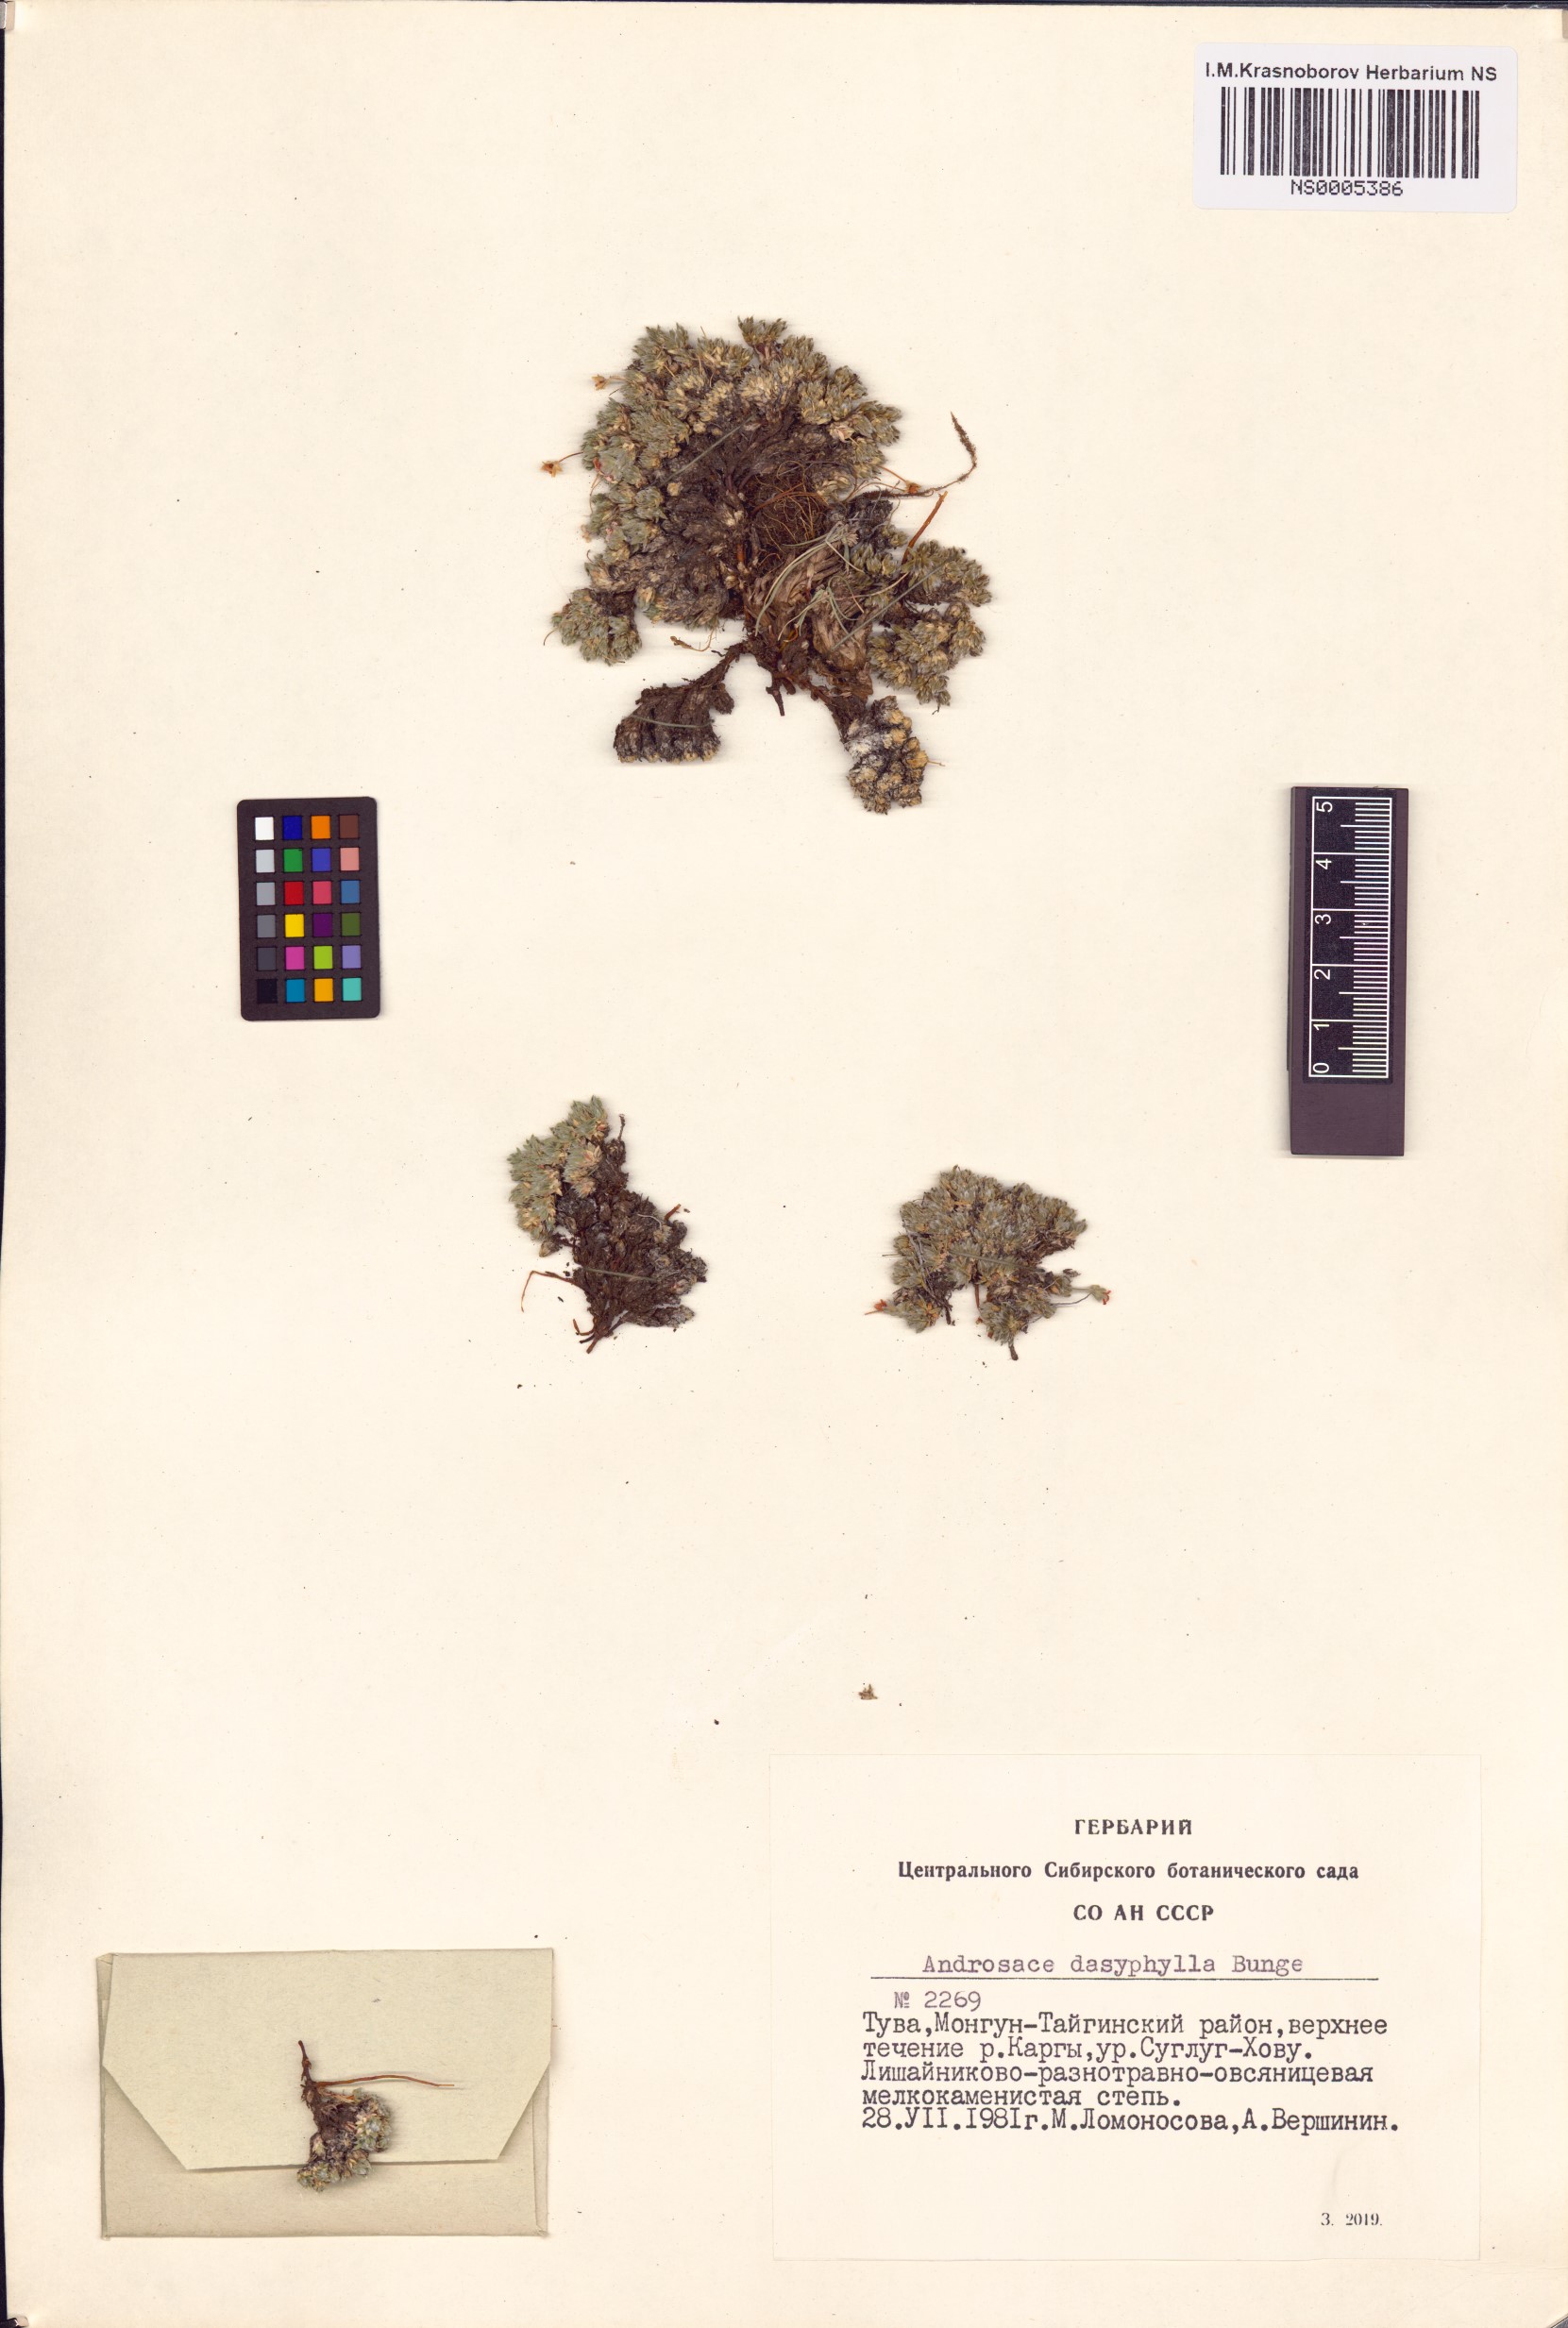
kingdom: Plantae
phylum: Tracheophyta
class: Magnoliopsida
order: Ericales
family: Primulaceae
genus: Androsace
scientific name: Androsace dasyphylla
